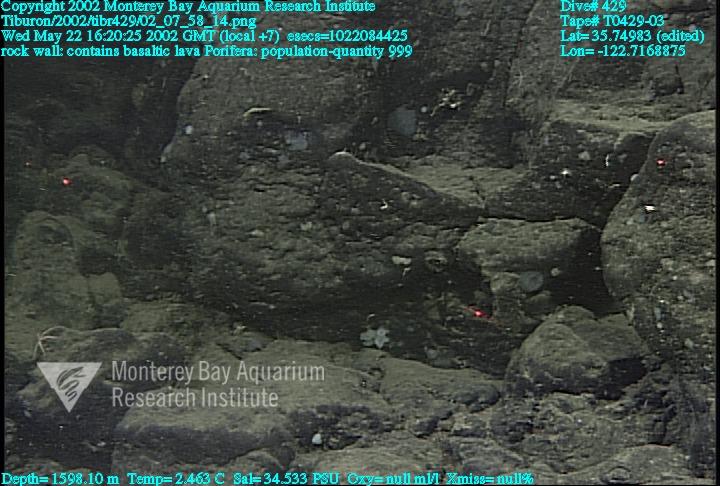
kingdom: Animalia
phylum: Porifera
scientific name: Porifera
